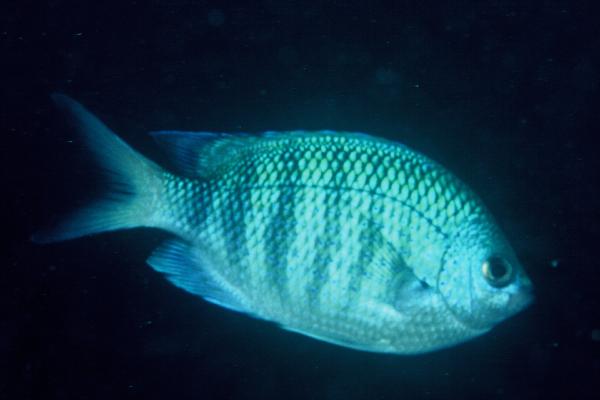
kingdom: Animalia
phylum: Chordata
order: Perciformes
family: Pomacentridae
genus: Abudefduf
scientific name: Abudefduf margariteus
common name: Pearly sergeant
